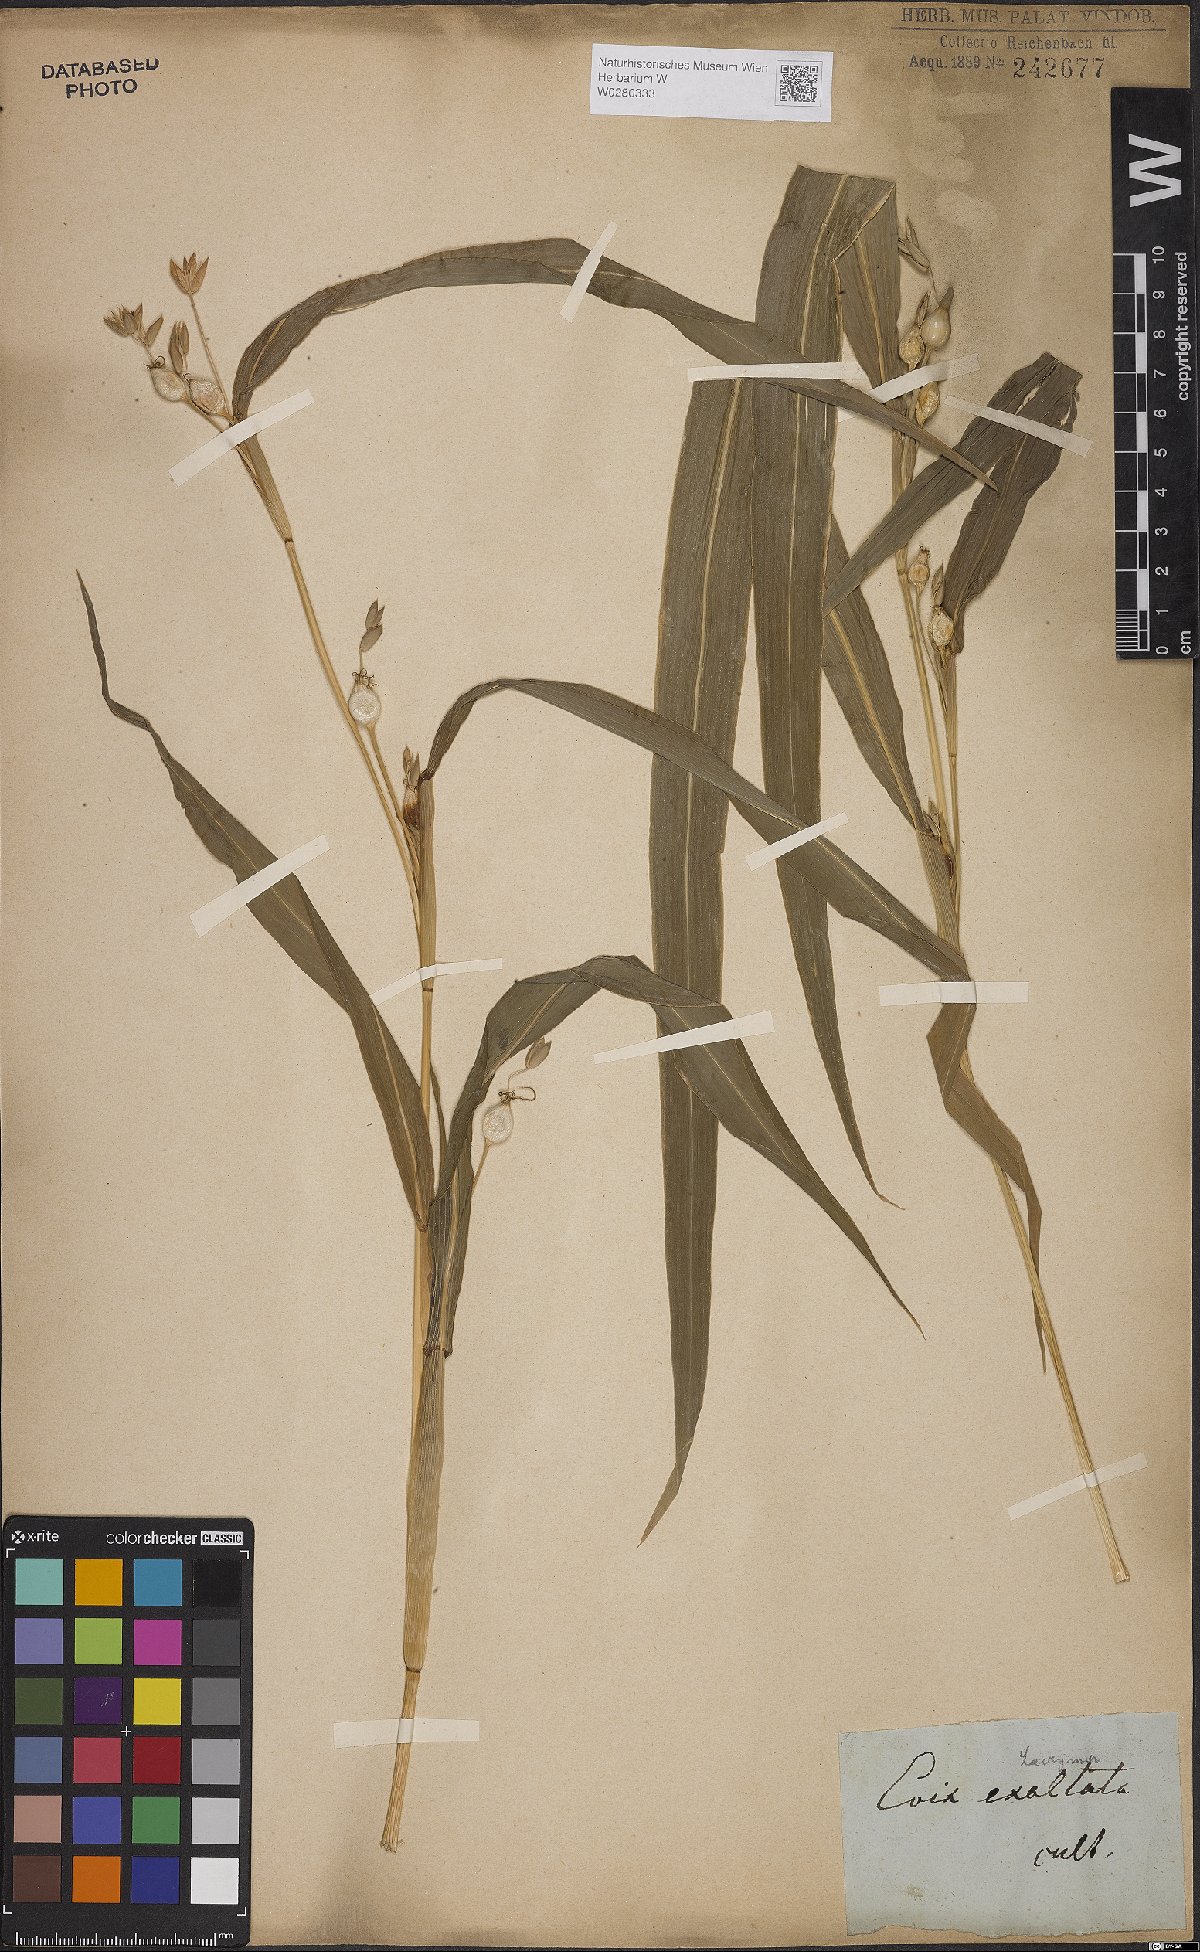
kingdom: Plantae
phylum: Tracheophyta
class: Liliopsida
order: Poales
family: Poaceae
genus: Coix
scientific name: Coix lacryma-jobi
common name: Job's tears
